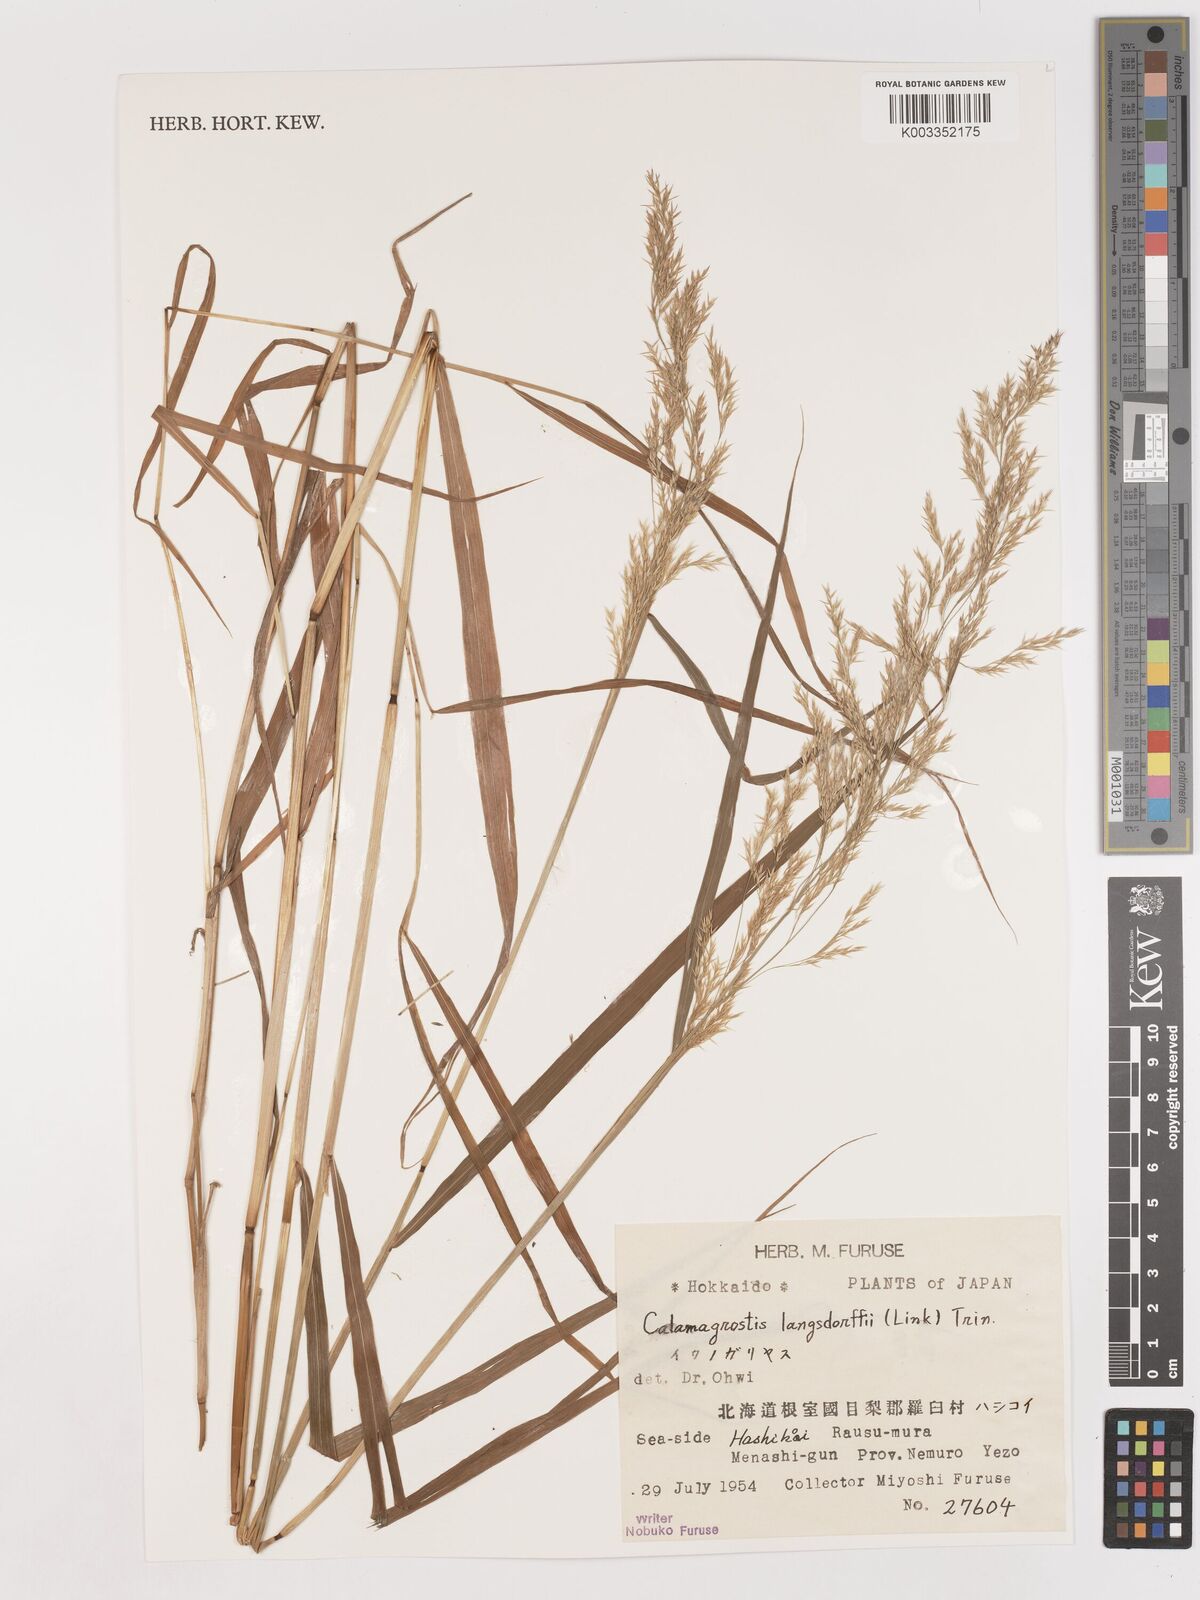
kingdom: Plantae
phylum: Tracheophyta
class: Liliopsida
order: Poales
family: Poaceae
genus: Calamagrostis
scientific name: Calamagrostis purpurea
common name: Scandinavian small-reed
